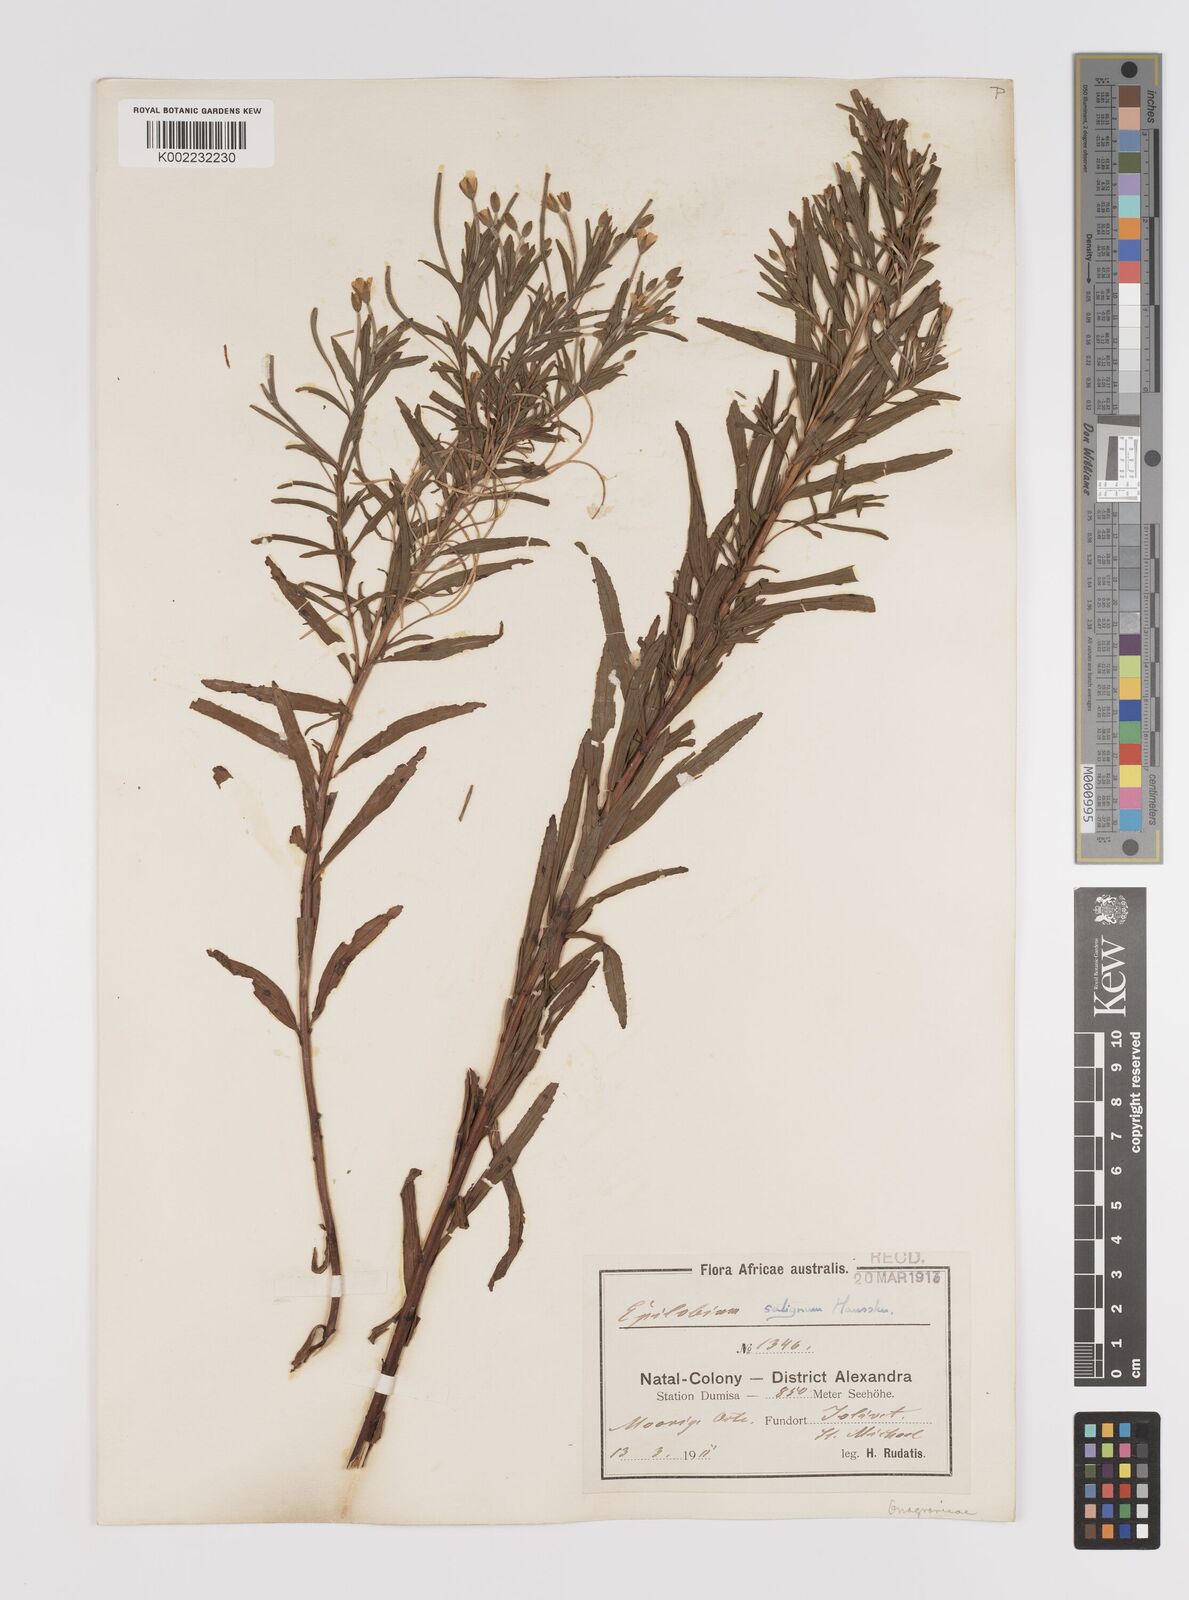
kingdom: Plantae
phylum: Tracheophyta
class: Magnoliopsida
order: Myrtales
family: Onagraceae
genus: Epilobium
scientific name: Epilobium salignum
